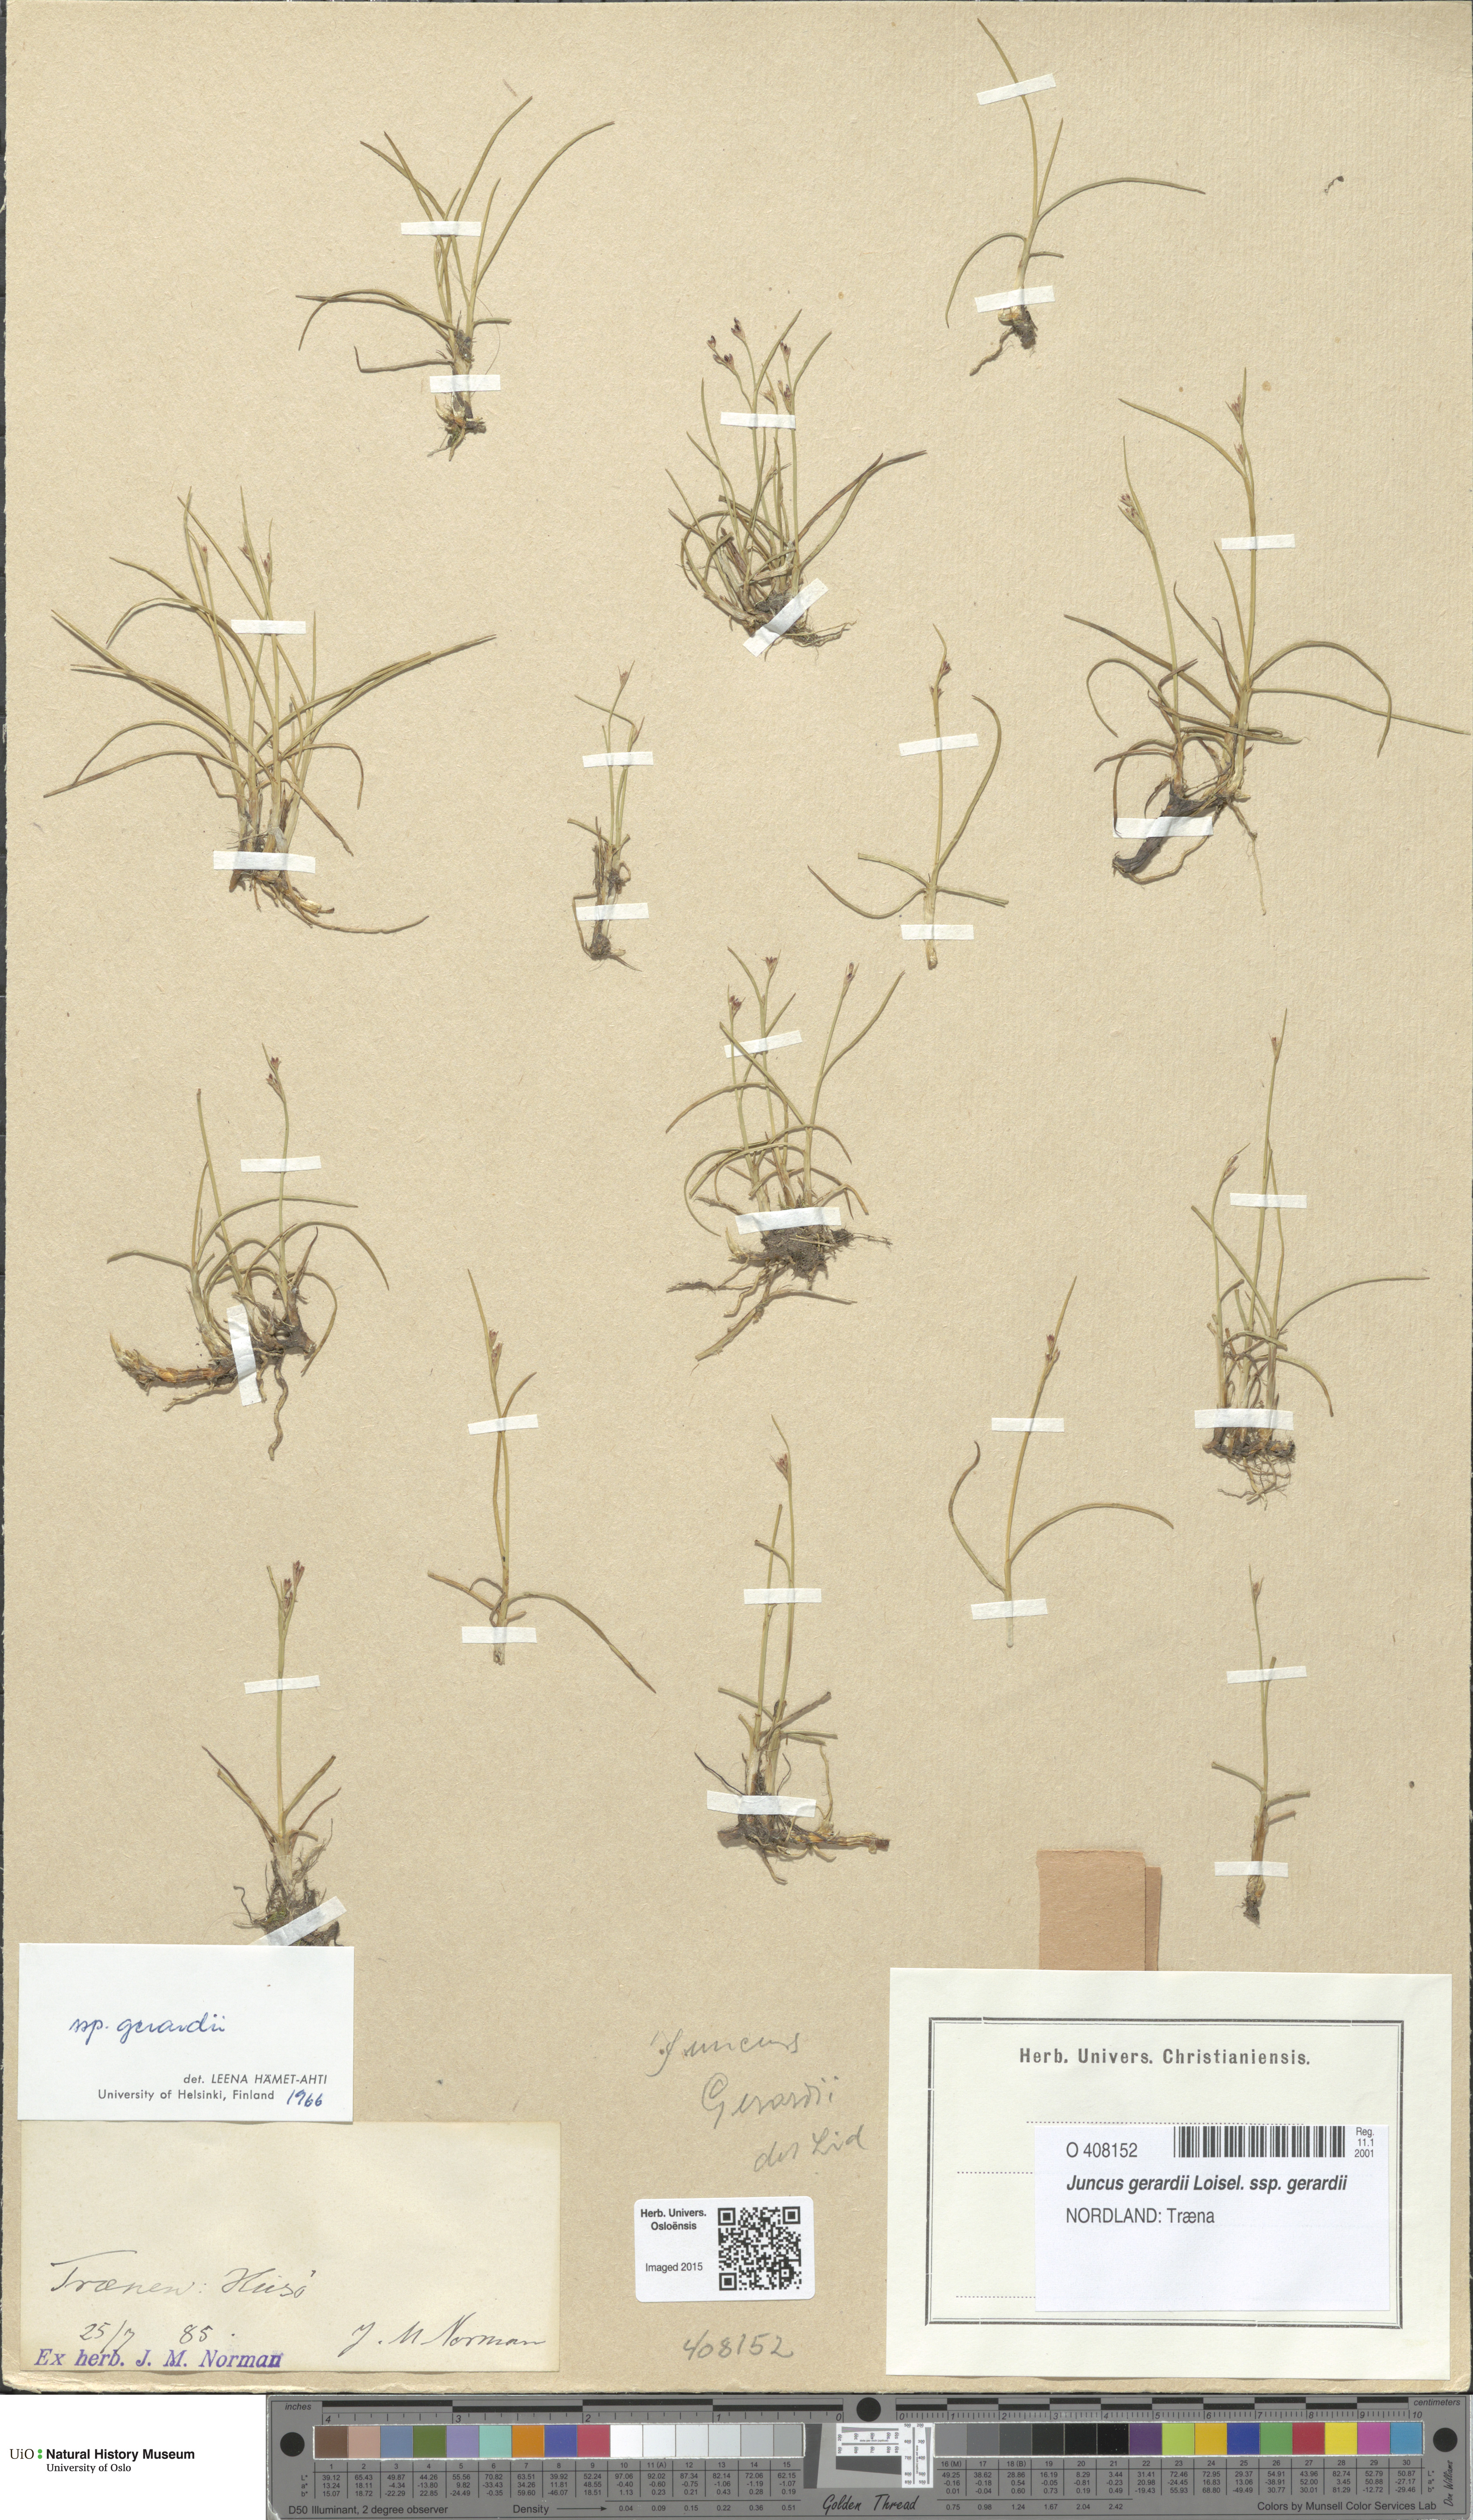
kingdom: Plantae
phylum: Tracheophyta
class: Liliopsida
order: Poales
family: Juncaceae
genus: Juncus
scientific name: Juncus gerardi
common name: Saltmarsh rush
